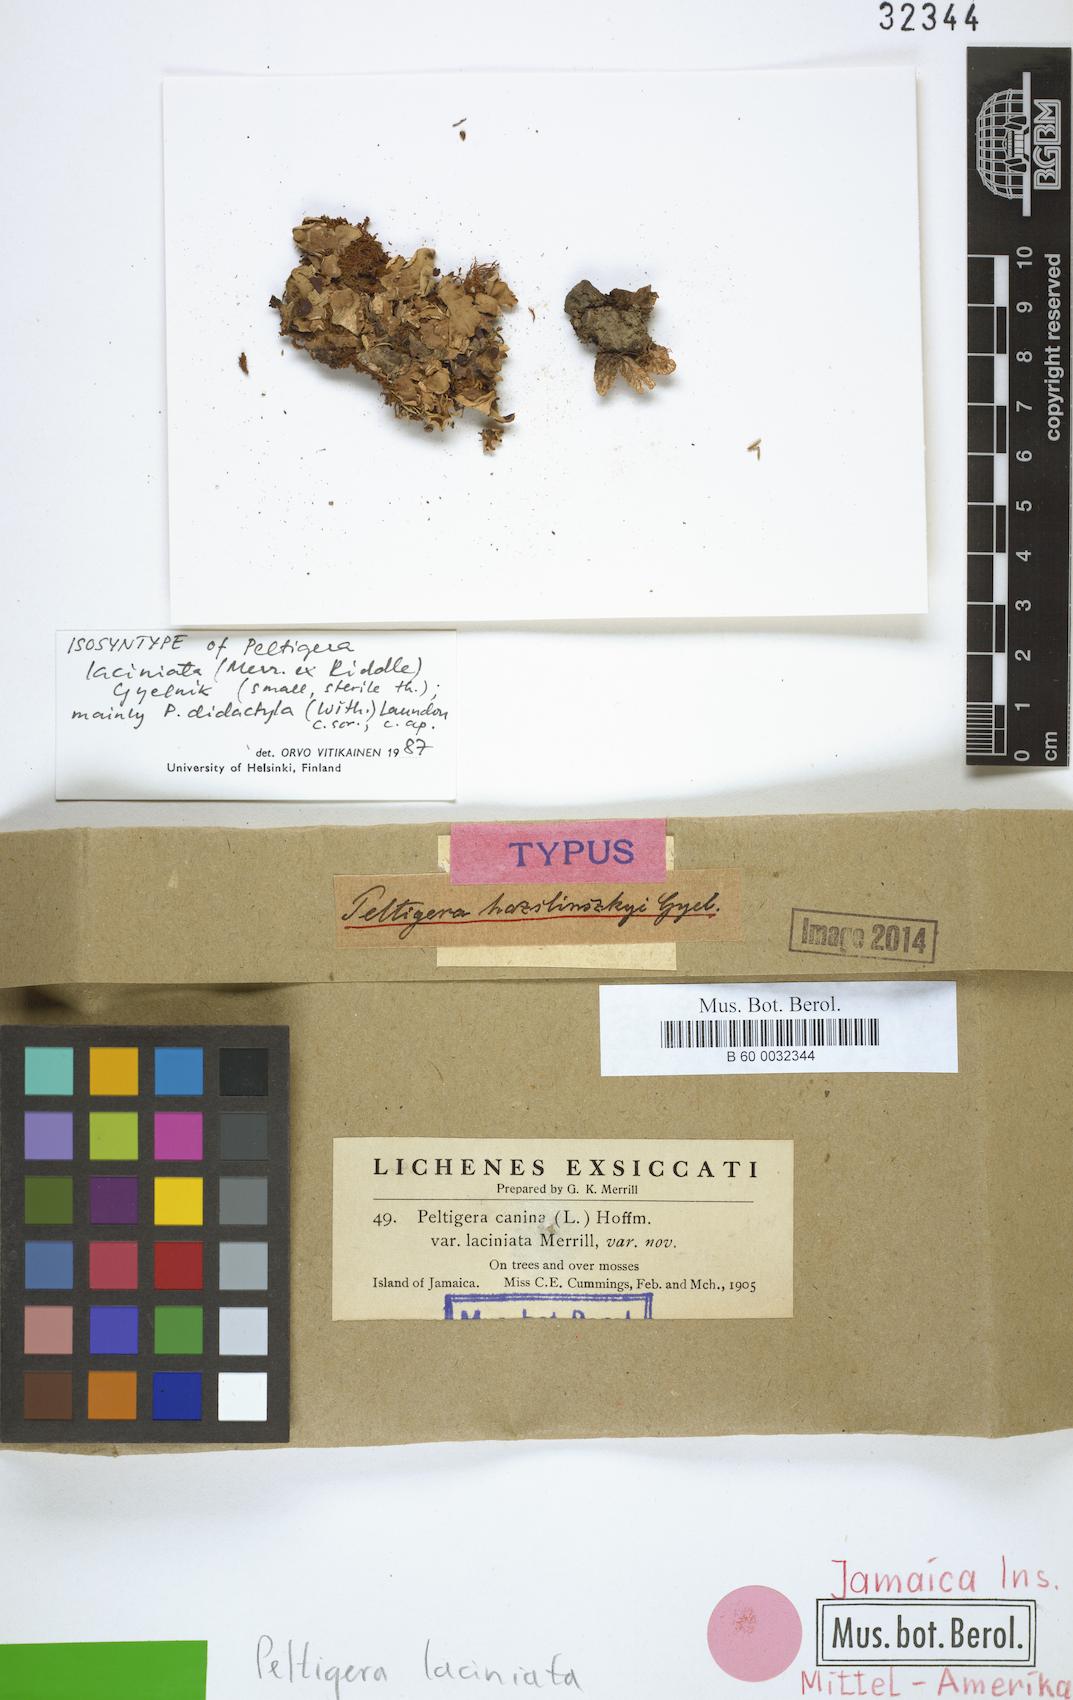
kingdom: Fungi
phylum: Ascomycota
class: Lecanoromycetes
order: Peltigerales
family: Peltigeraceae
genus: Peltigera
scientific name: Peltigera laciniata
